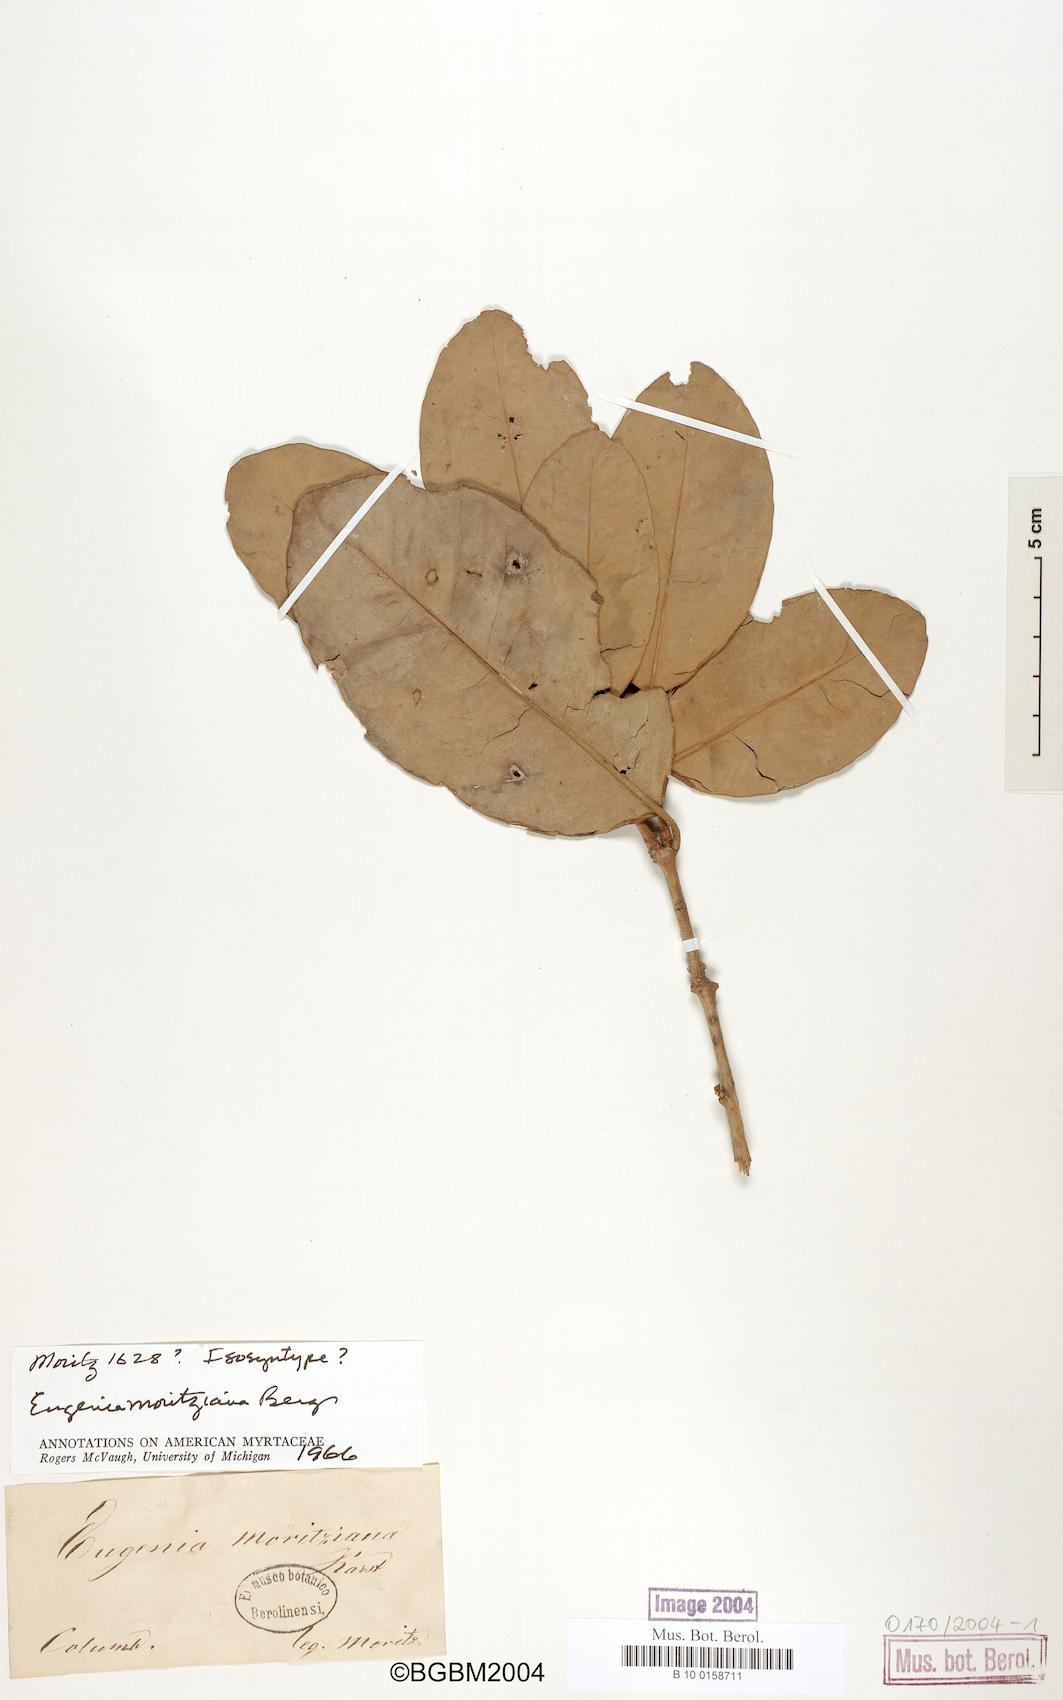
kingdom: Plantae
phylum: Tracheophyta
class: Magnoliopsida
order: Myrtales
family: Myrtaceae
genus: Eugenia
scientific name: Eugenia moritziana
